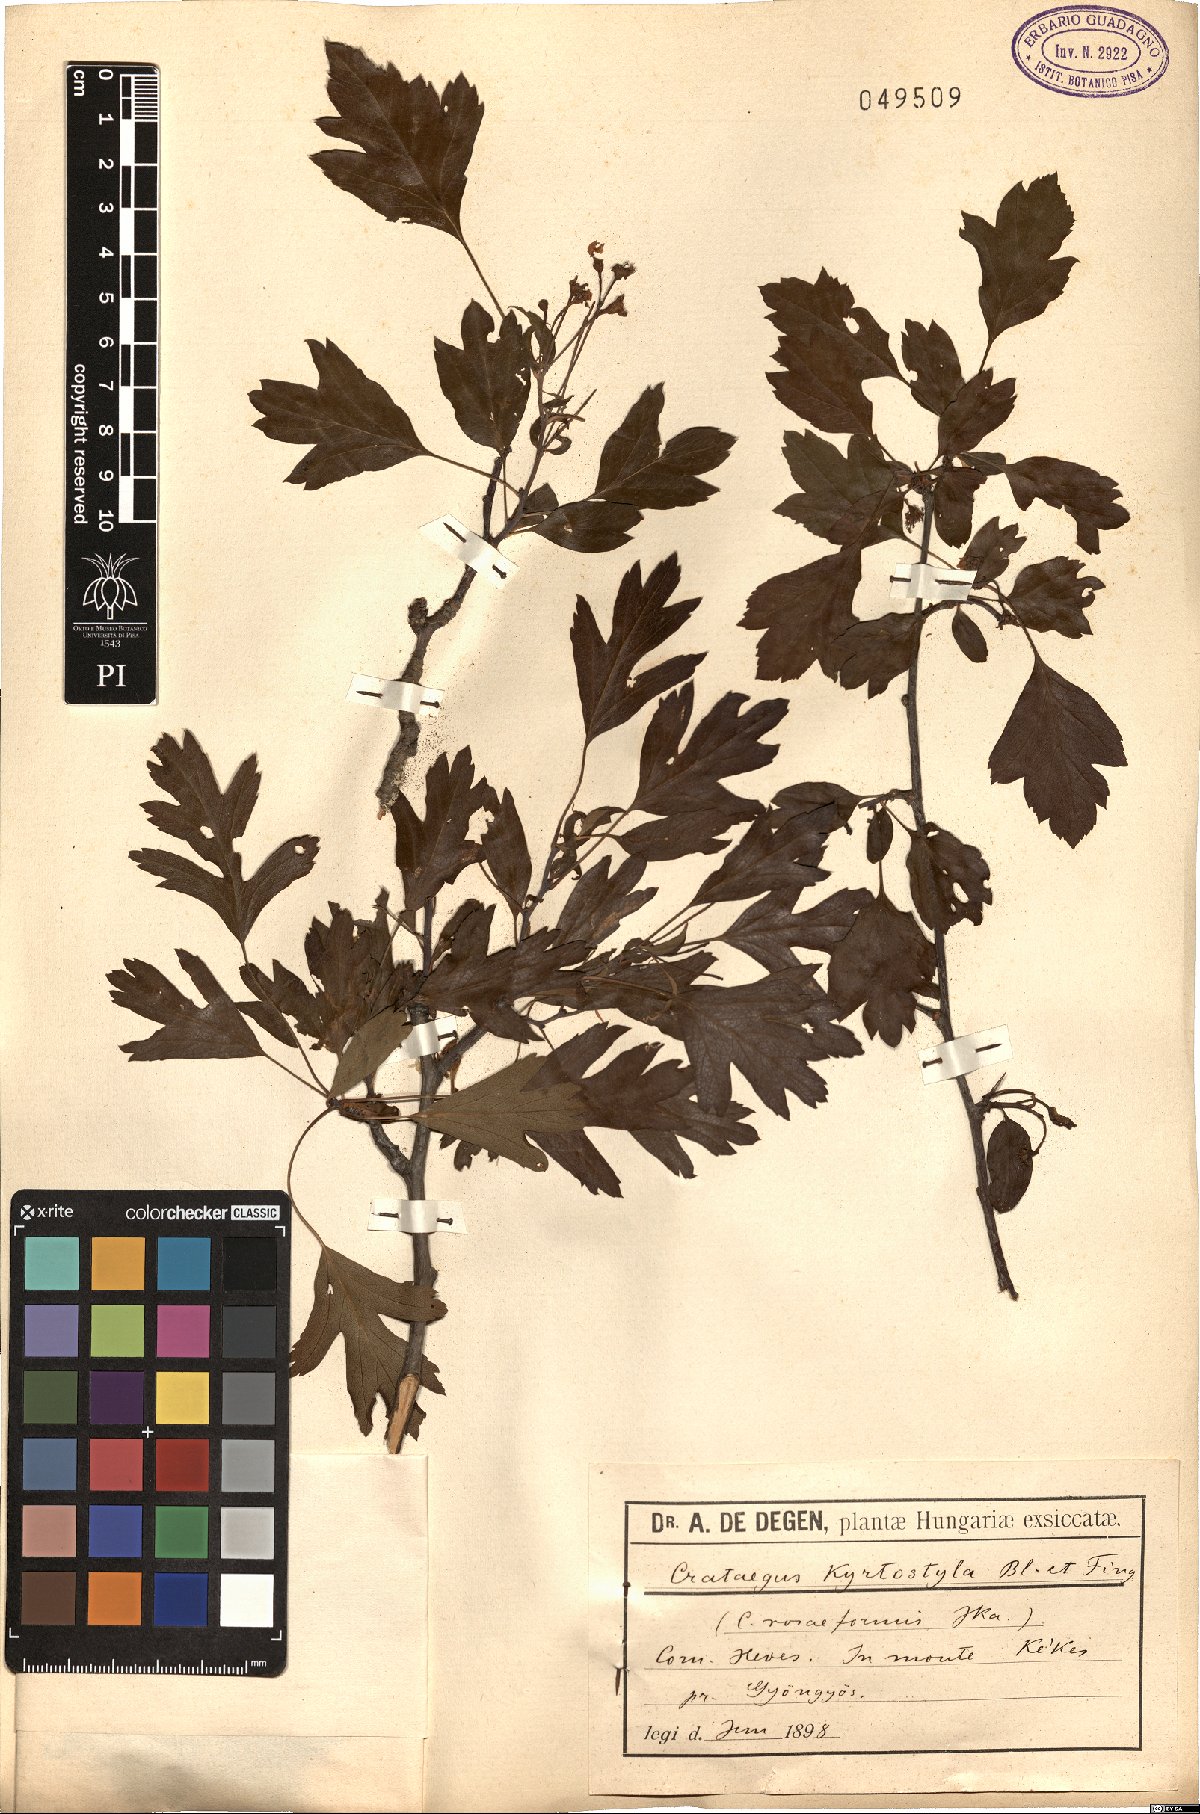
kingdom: Plantae
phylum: Tracheophyta
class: Magnoliopsida
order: Rosales
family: Rosaceae
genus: Crataegus
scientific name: Crataegus kyrtostyla
